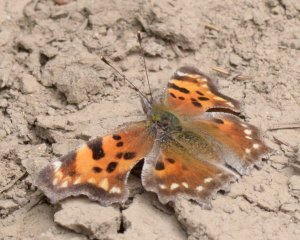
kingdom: Animalia
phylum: Arthropoda
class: Insecta
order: Lepidoptera
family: Nymphalidae
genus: Polygonia
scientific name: Polygonia faunus
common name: Green Comma
